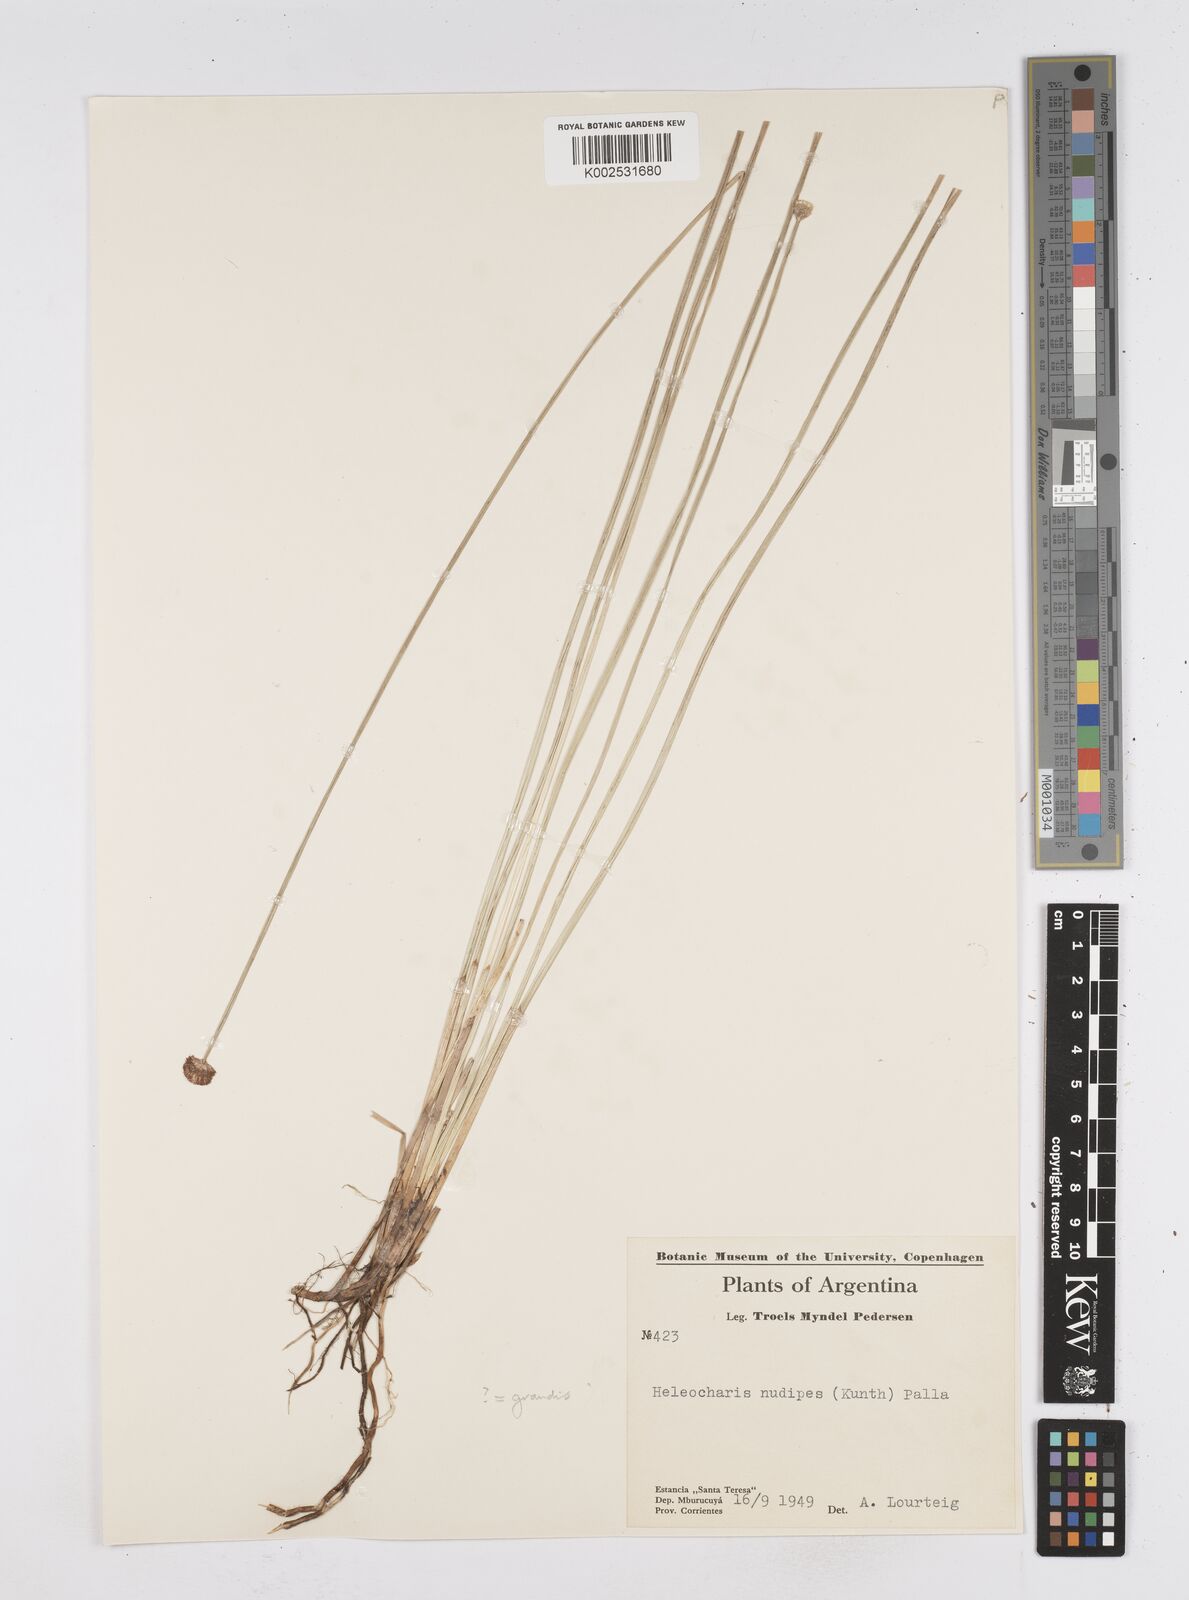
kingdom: Plantae
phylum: Tracheophyta
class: Liliopsida
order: Poales
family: Cyperaceae
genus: Eleocharis
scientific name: Eleocharis
